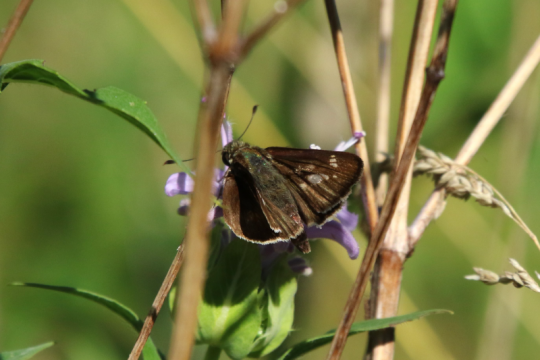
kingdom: Animalia
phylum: Arthropoda
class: Insecta
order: Lepidoptera
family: Hesperiidae
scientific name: Hesperiidae
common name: Skippers
